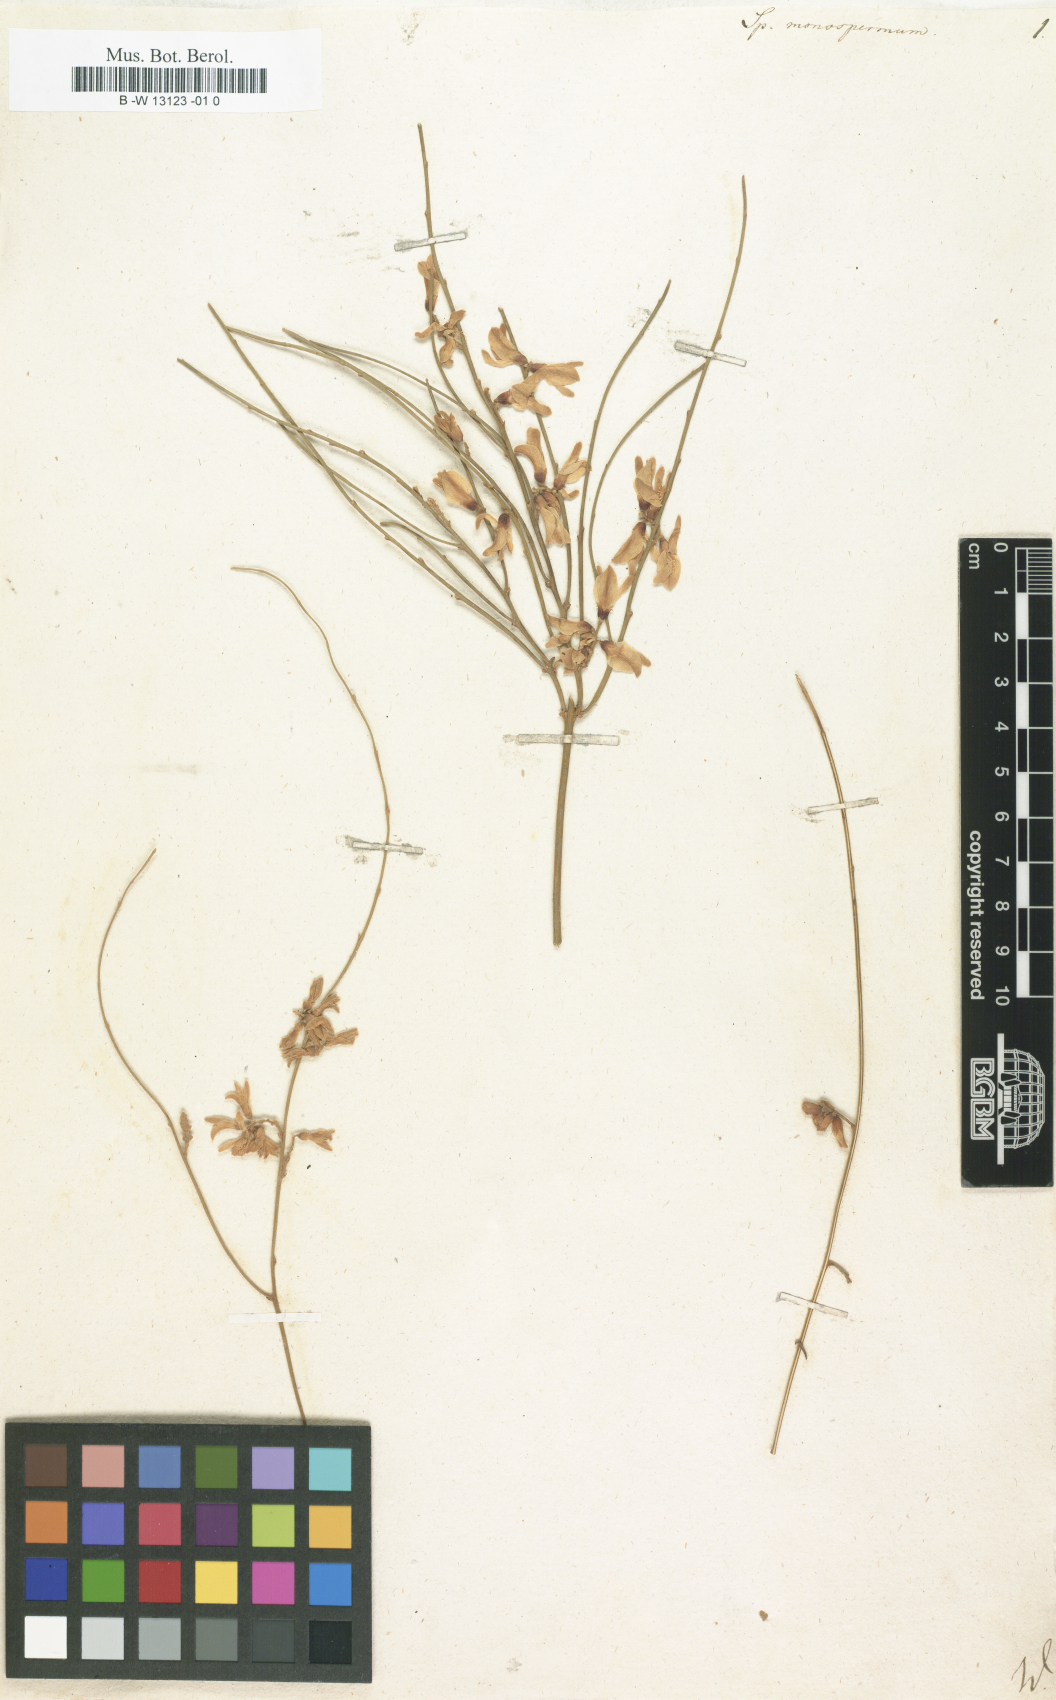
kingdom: Plantae
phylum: Tracheophyta
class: Magnoliopsida
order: Fabales
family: Fabaceae
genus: Retama
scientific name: Retama
